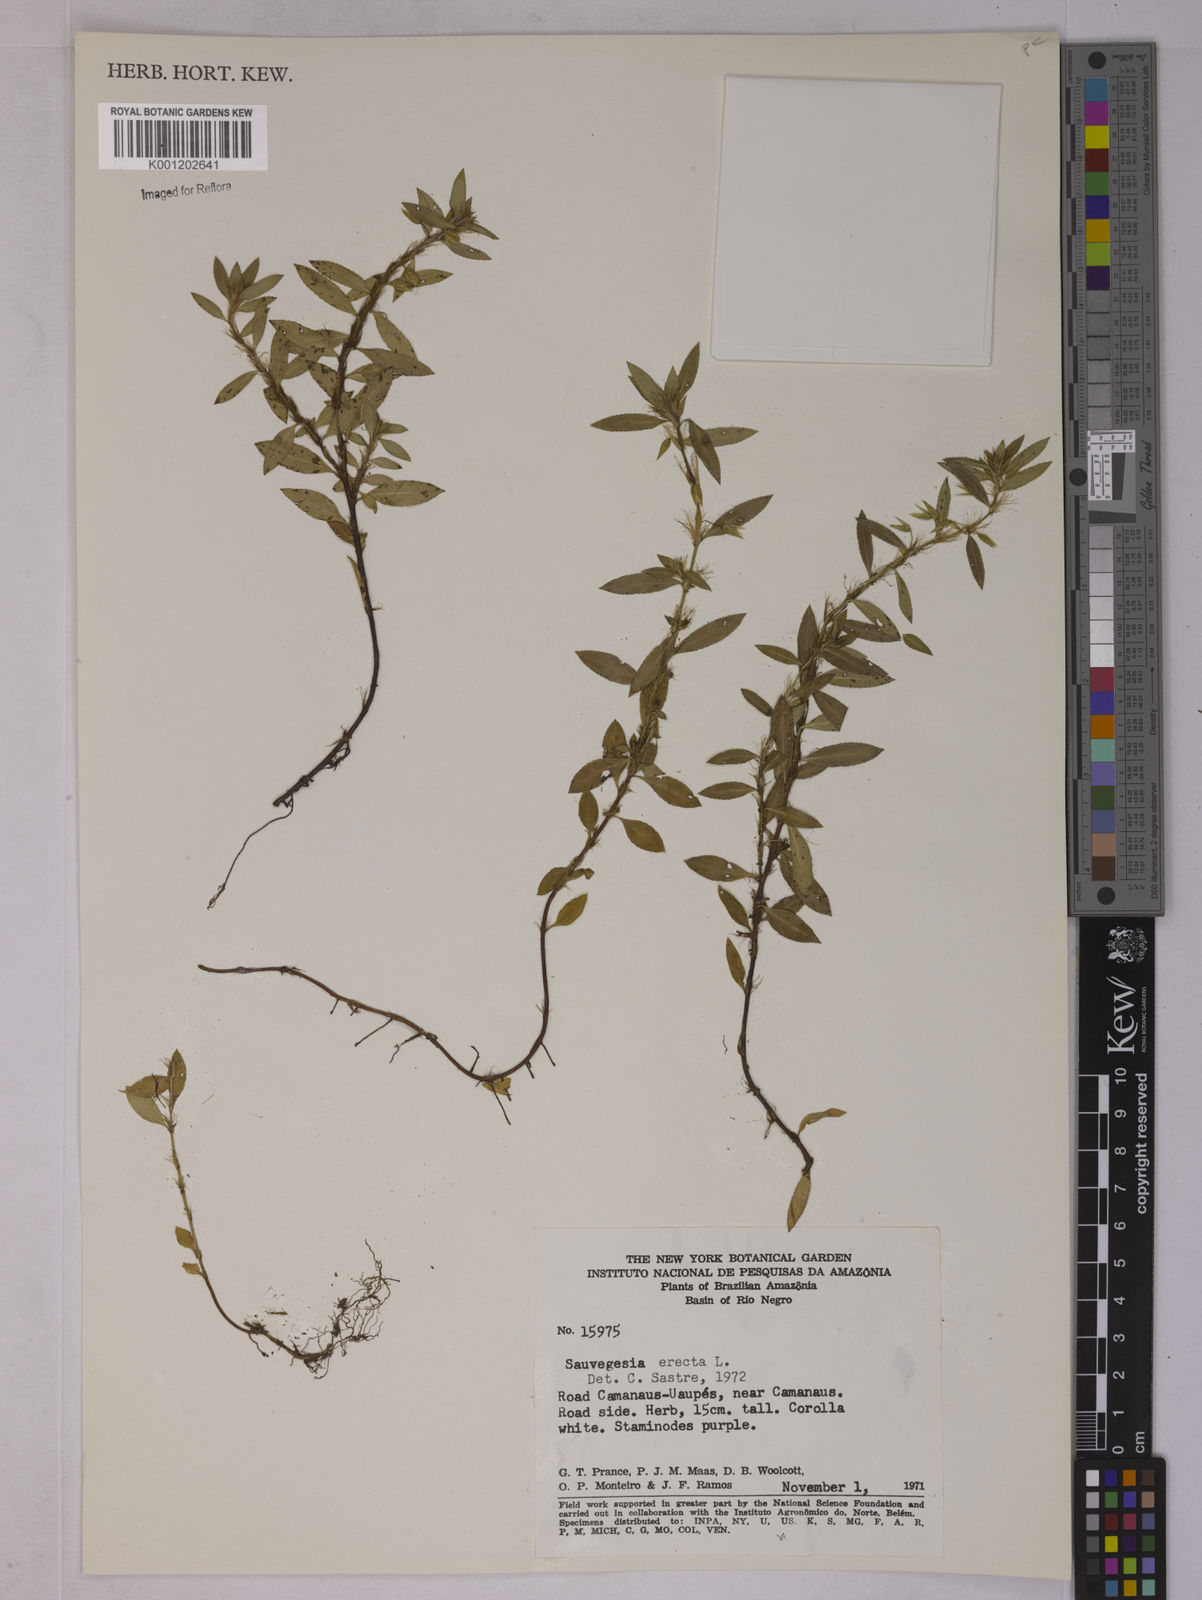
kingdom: Plantae
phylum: Tracheophyta
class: Magnoliopsida
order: Malpighiales
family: Ochnaceae
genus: Sauvagesia
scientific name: Sauvagesia erecta
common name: Creole tea
